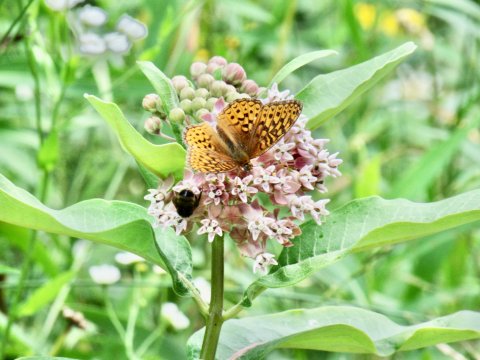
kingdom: Animalia
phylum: Arthropoda
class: Insecta
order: Lepidoptera
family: Nymphalidae
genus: Speyeria
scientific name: Speyeria atlantis
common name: Atlantis Fritillary
